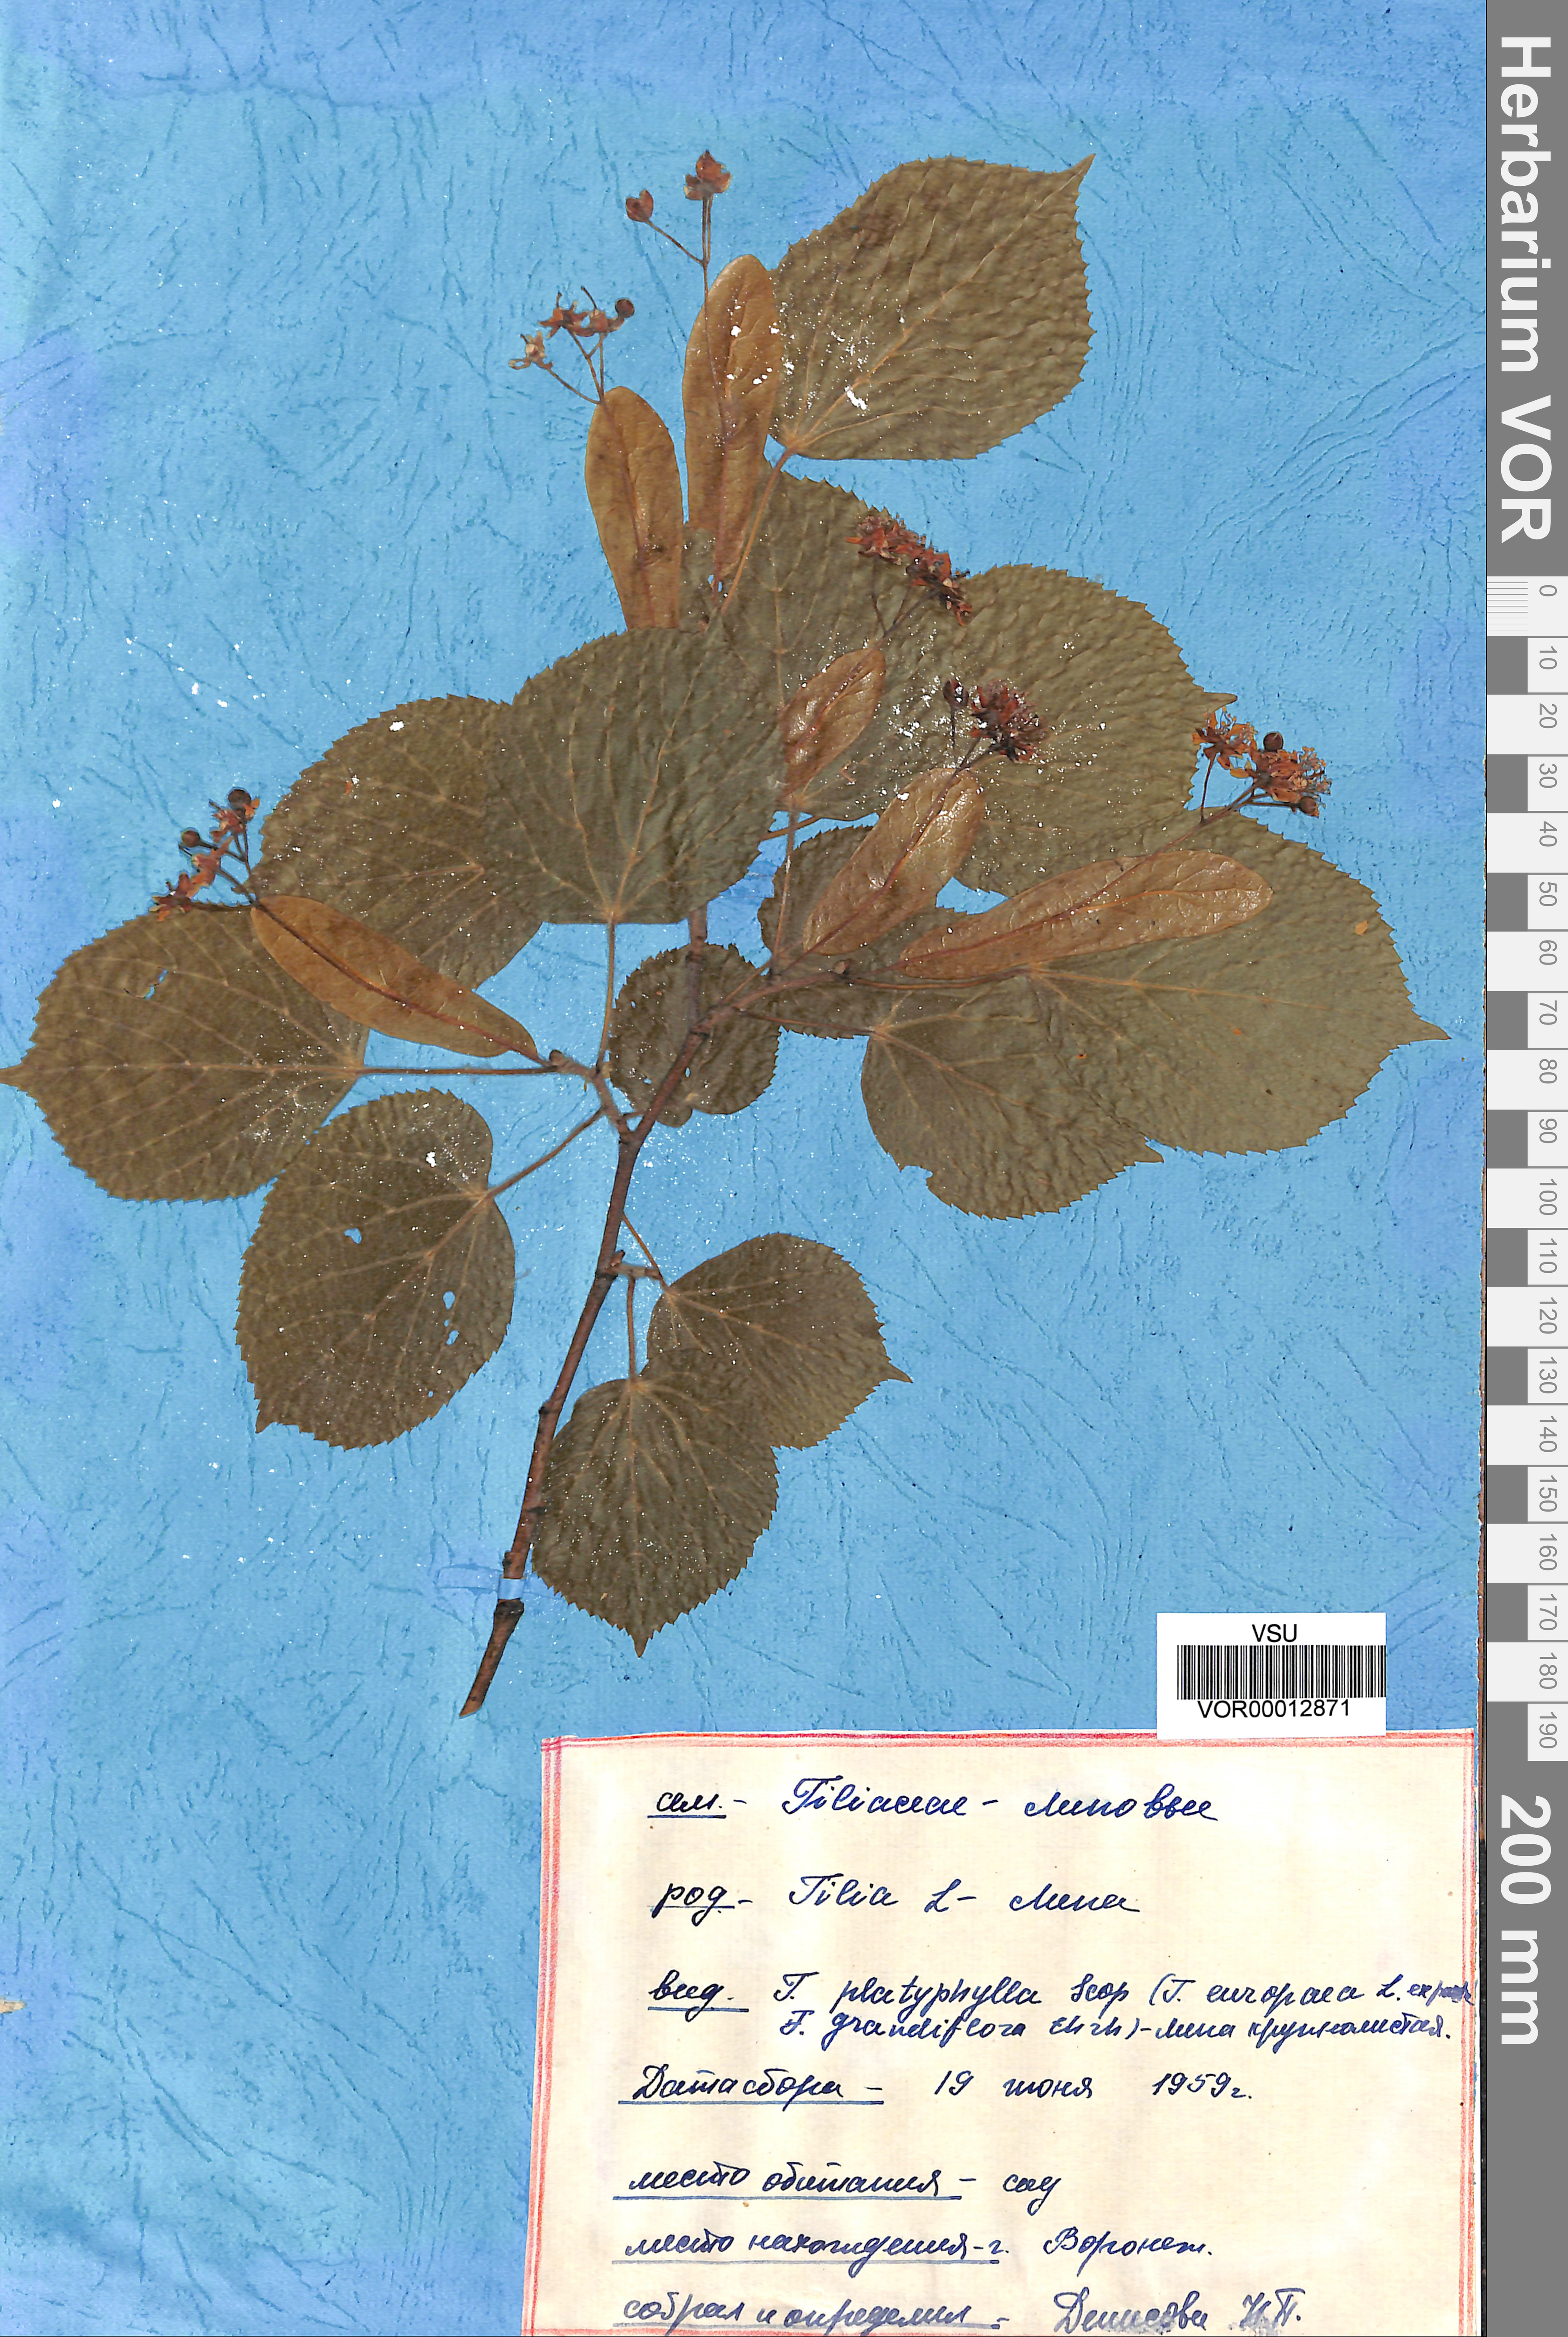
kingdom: Plantae
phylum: Tracheophyta
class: Magnoliopsida
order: Malvales
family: Malvaceae
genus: Tilia
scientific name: Tilia platyphyllos
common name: Large-leaved lime
